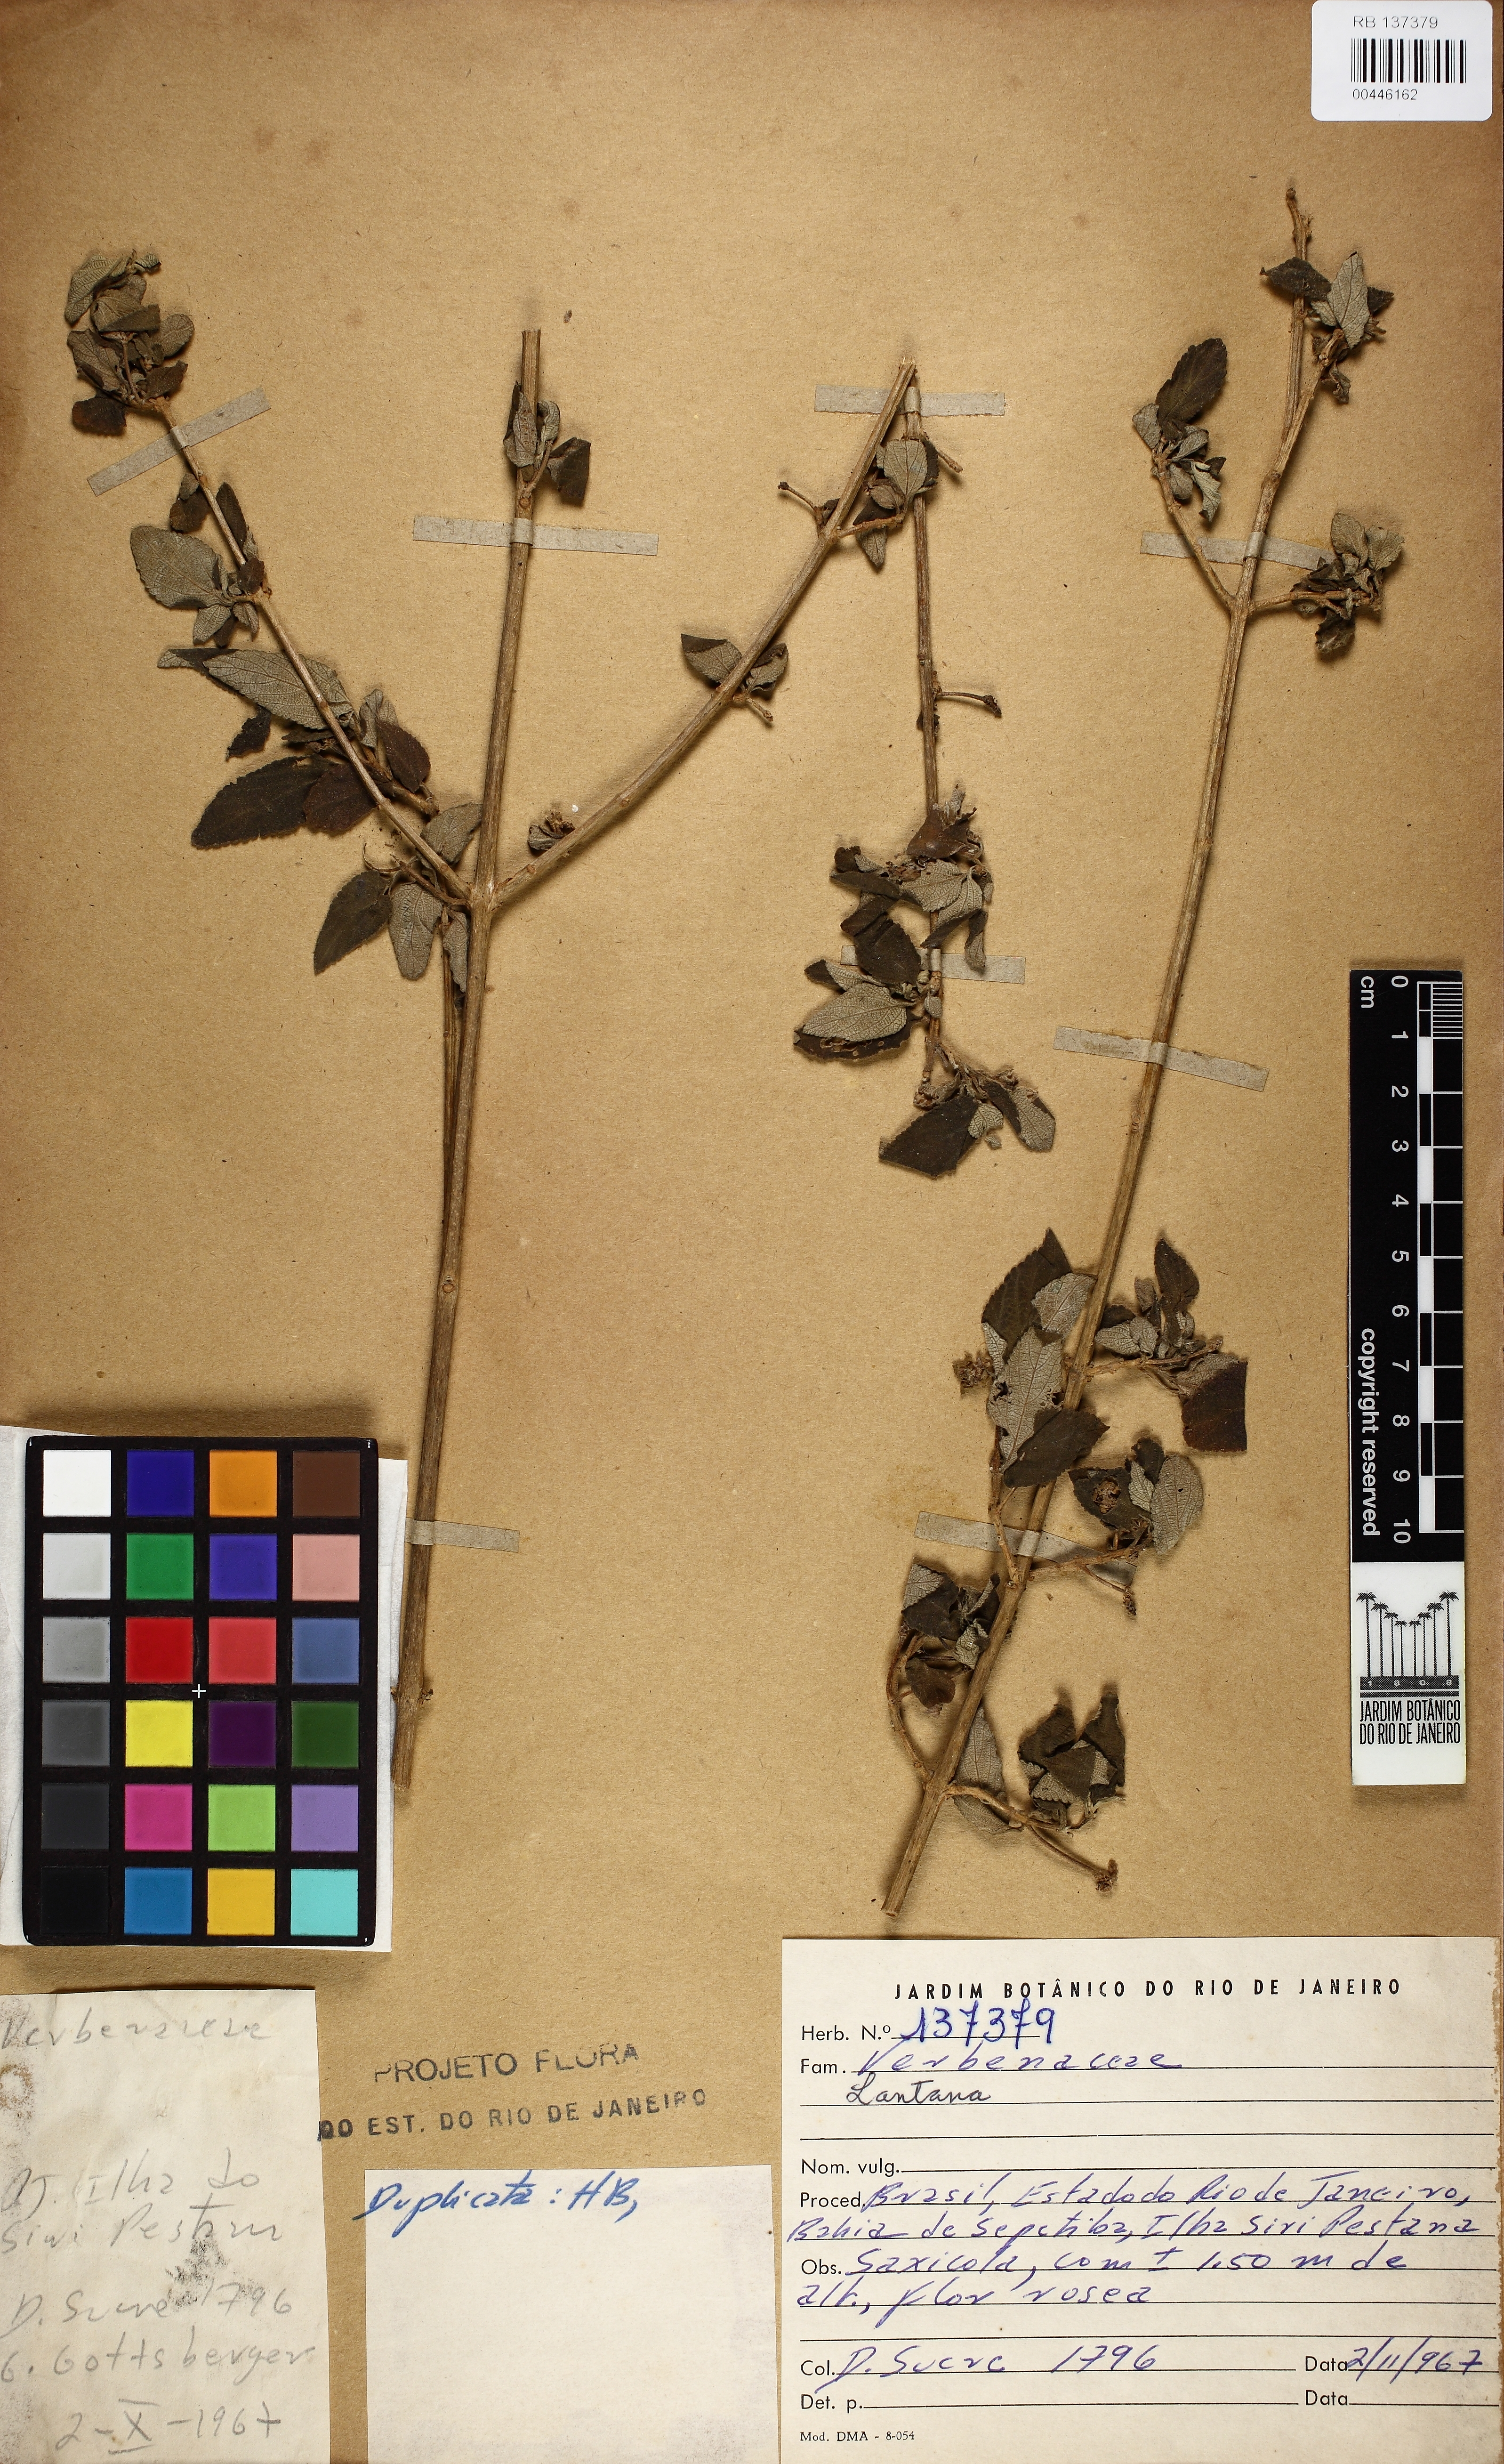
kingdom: Plantae
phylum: Tracheophyta
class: Magnoliopsida
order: Lamiales
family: Verbenaceae
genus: Lantana
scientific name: Lantana
